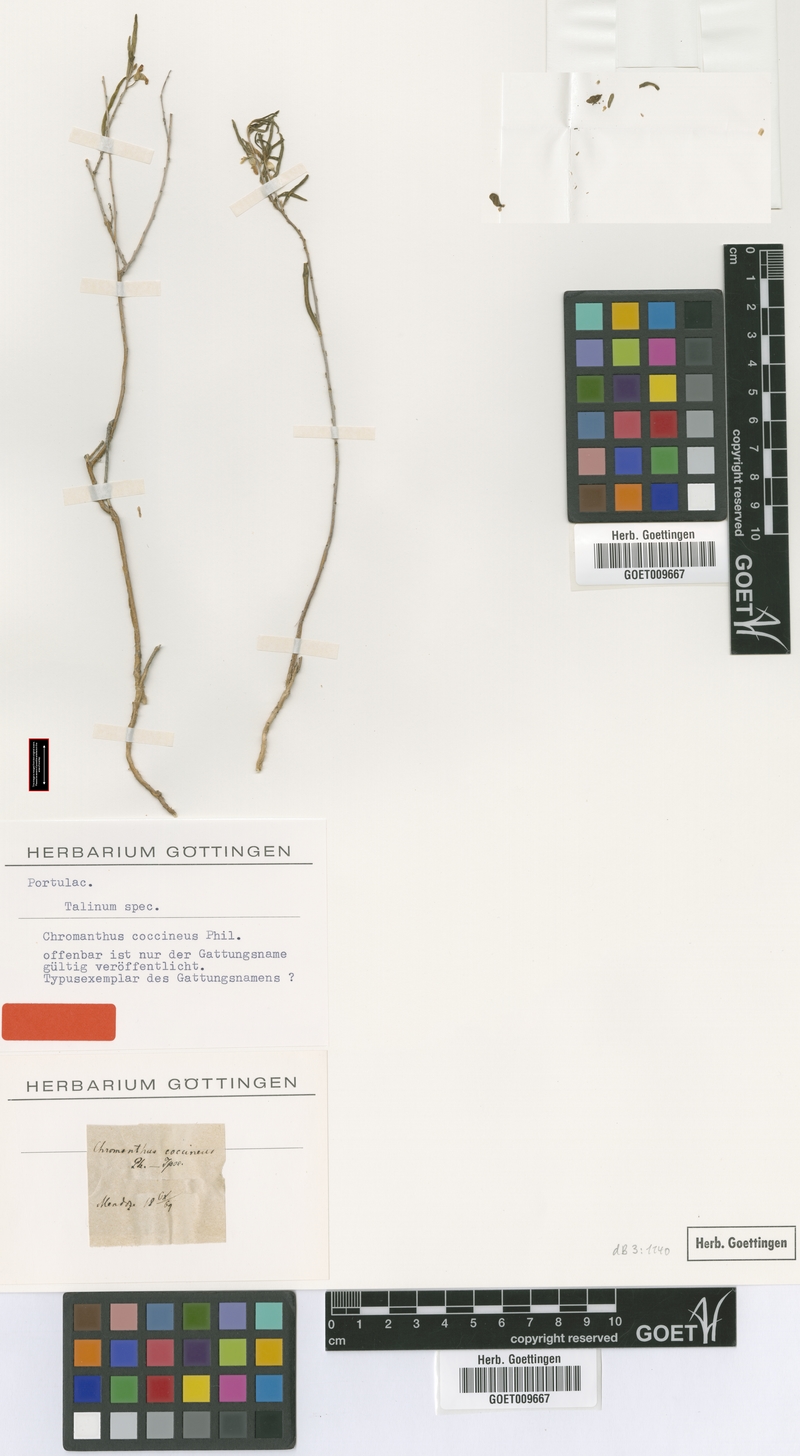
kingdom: Plantae
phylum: Tracheophyta
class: Magnoliopsida
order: Caryophyllales
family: Talinaceae
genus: Talinum
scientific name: Talinum
